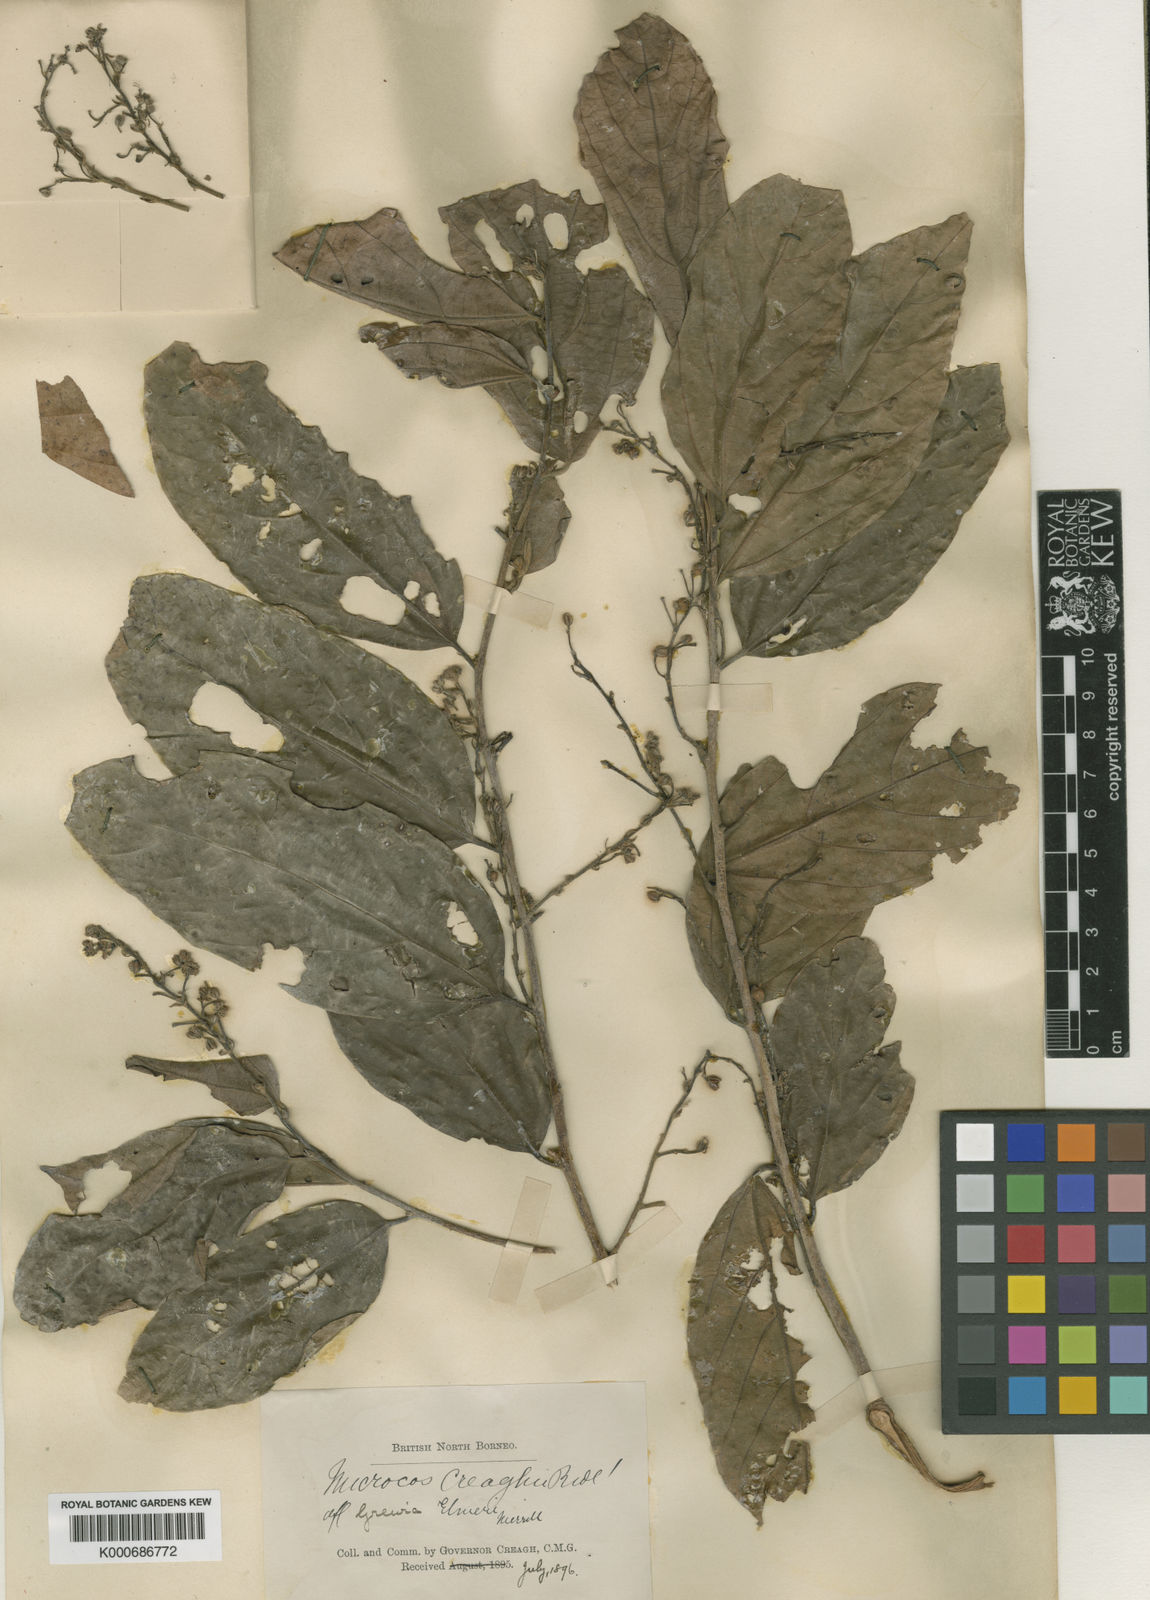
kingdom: Plantae
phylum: Tracheophyta
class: Magnoliopsida
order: Malvales
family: Malvaceae
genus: Microcos
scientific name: Microcos antidesmifolia
